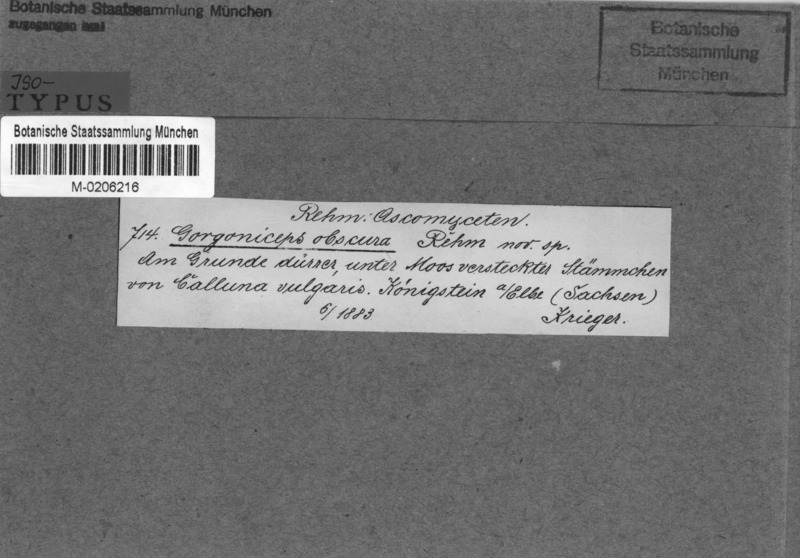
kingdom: Fungi
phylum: Ascomycota
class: Leotiomycetes
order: Helotiales
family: Mollisiaceae
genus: Mollisia
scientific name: Mollisia obscura
